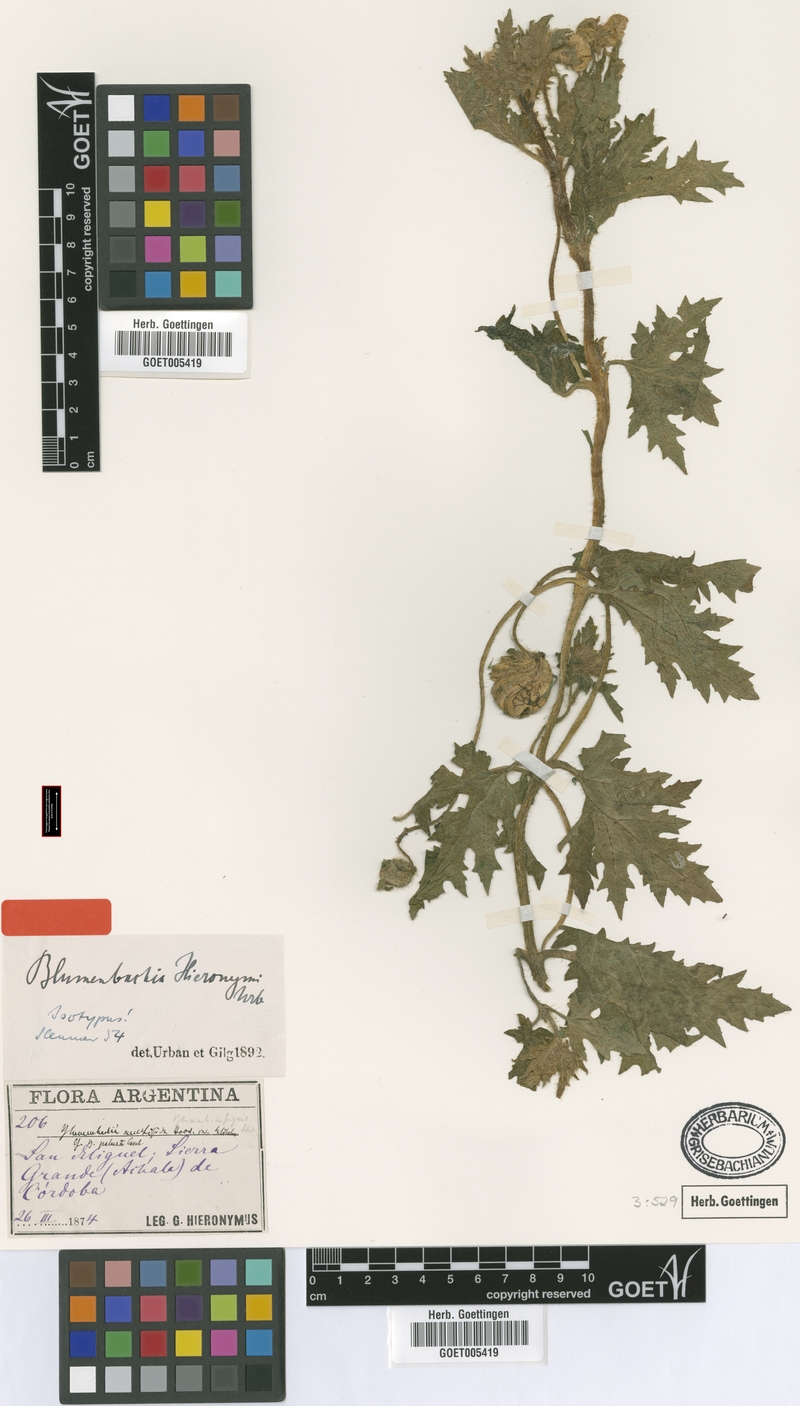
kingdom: Plantae
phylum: Tracheophyta
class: Magnoliopsida
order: Cornales
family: Loasaceae
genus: Blumenbachia
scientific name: Blumenbachia hieronymi
